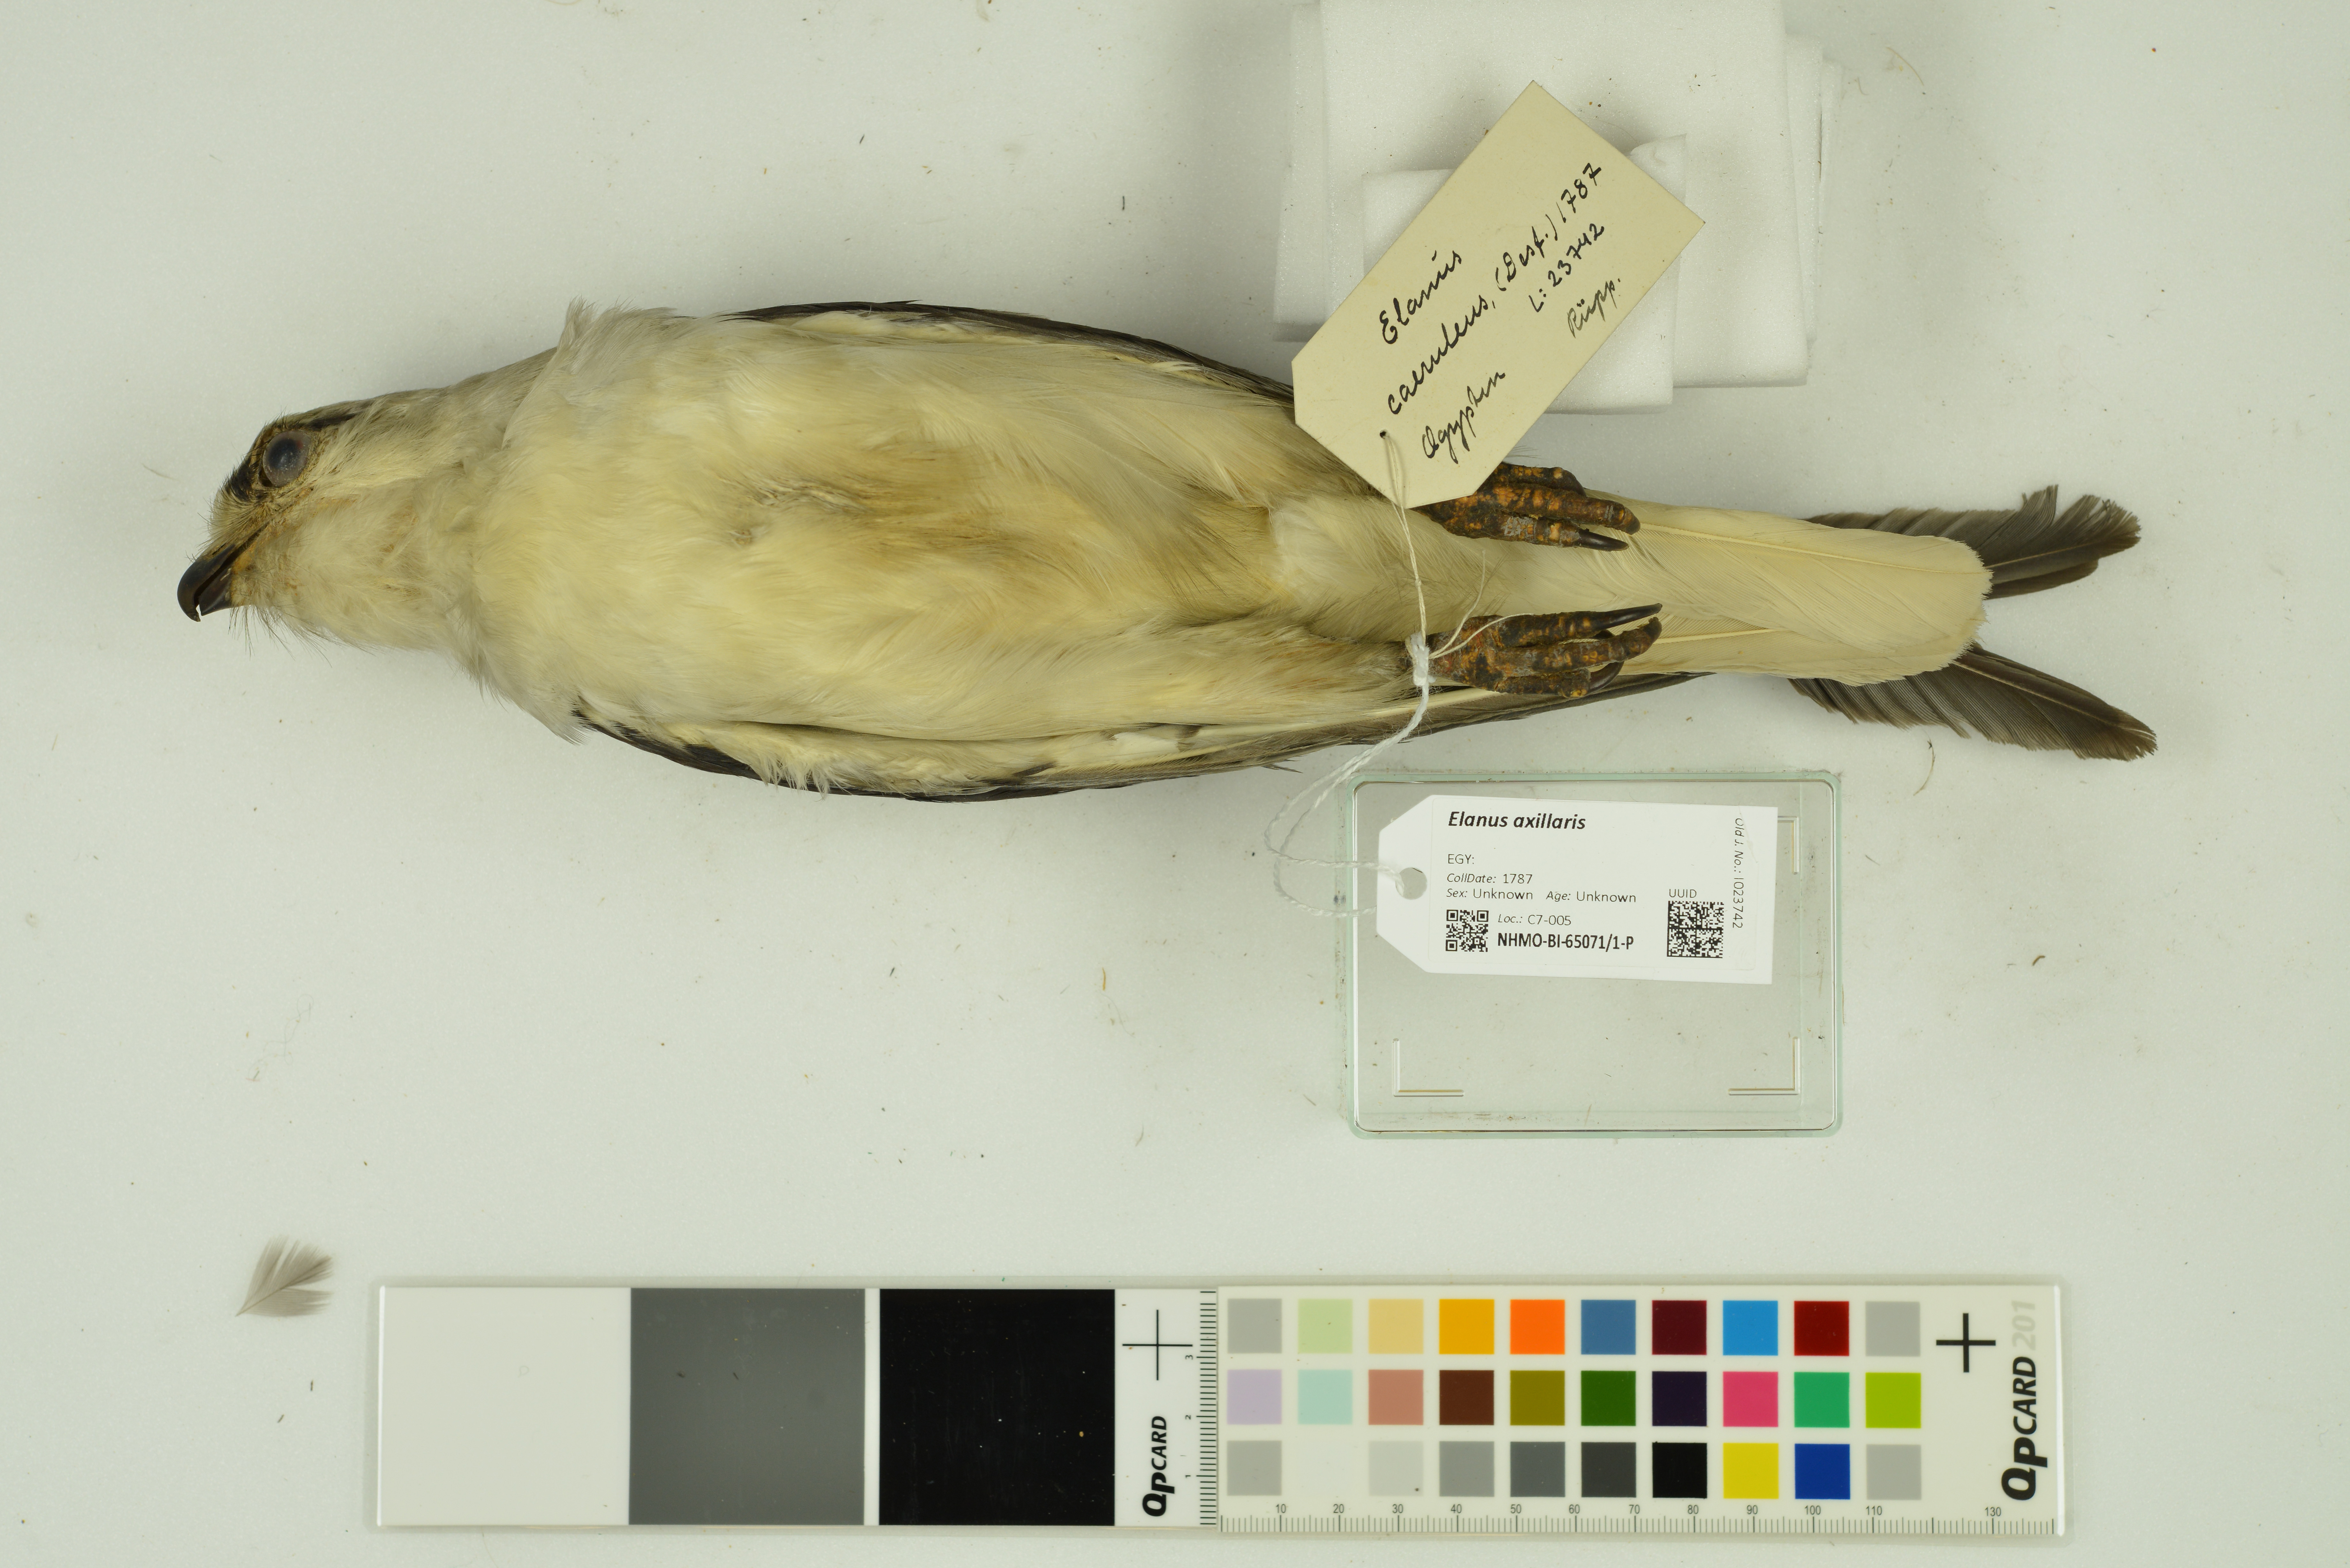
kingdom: Animalia
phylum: Chordata
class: Aves
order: Accipitriformes
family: Accipitridae
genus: Elanus
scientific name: Elanus axillaris
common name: Black-shouldered kite
